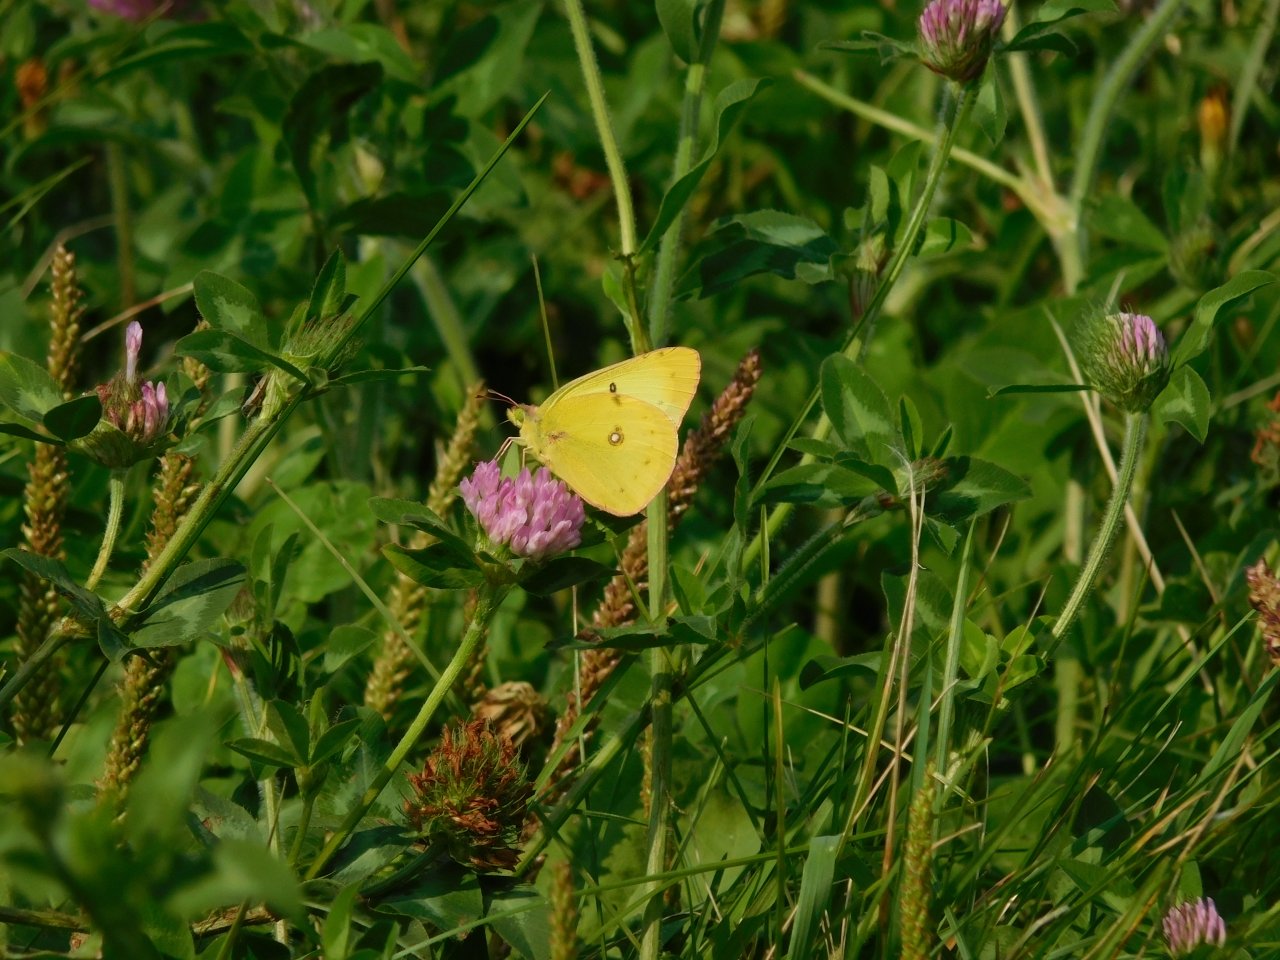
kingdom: Animalia
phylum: Arthropoda
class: Insecta
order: Lepidoptera
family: Pieridae
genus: Colias
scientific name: Colias philodice
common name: Clouded Sulphur
